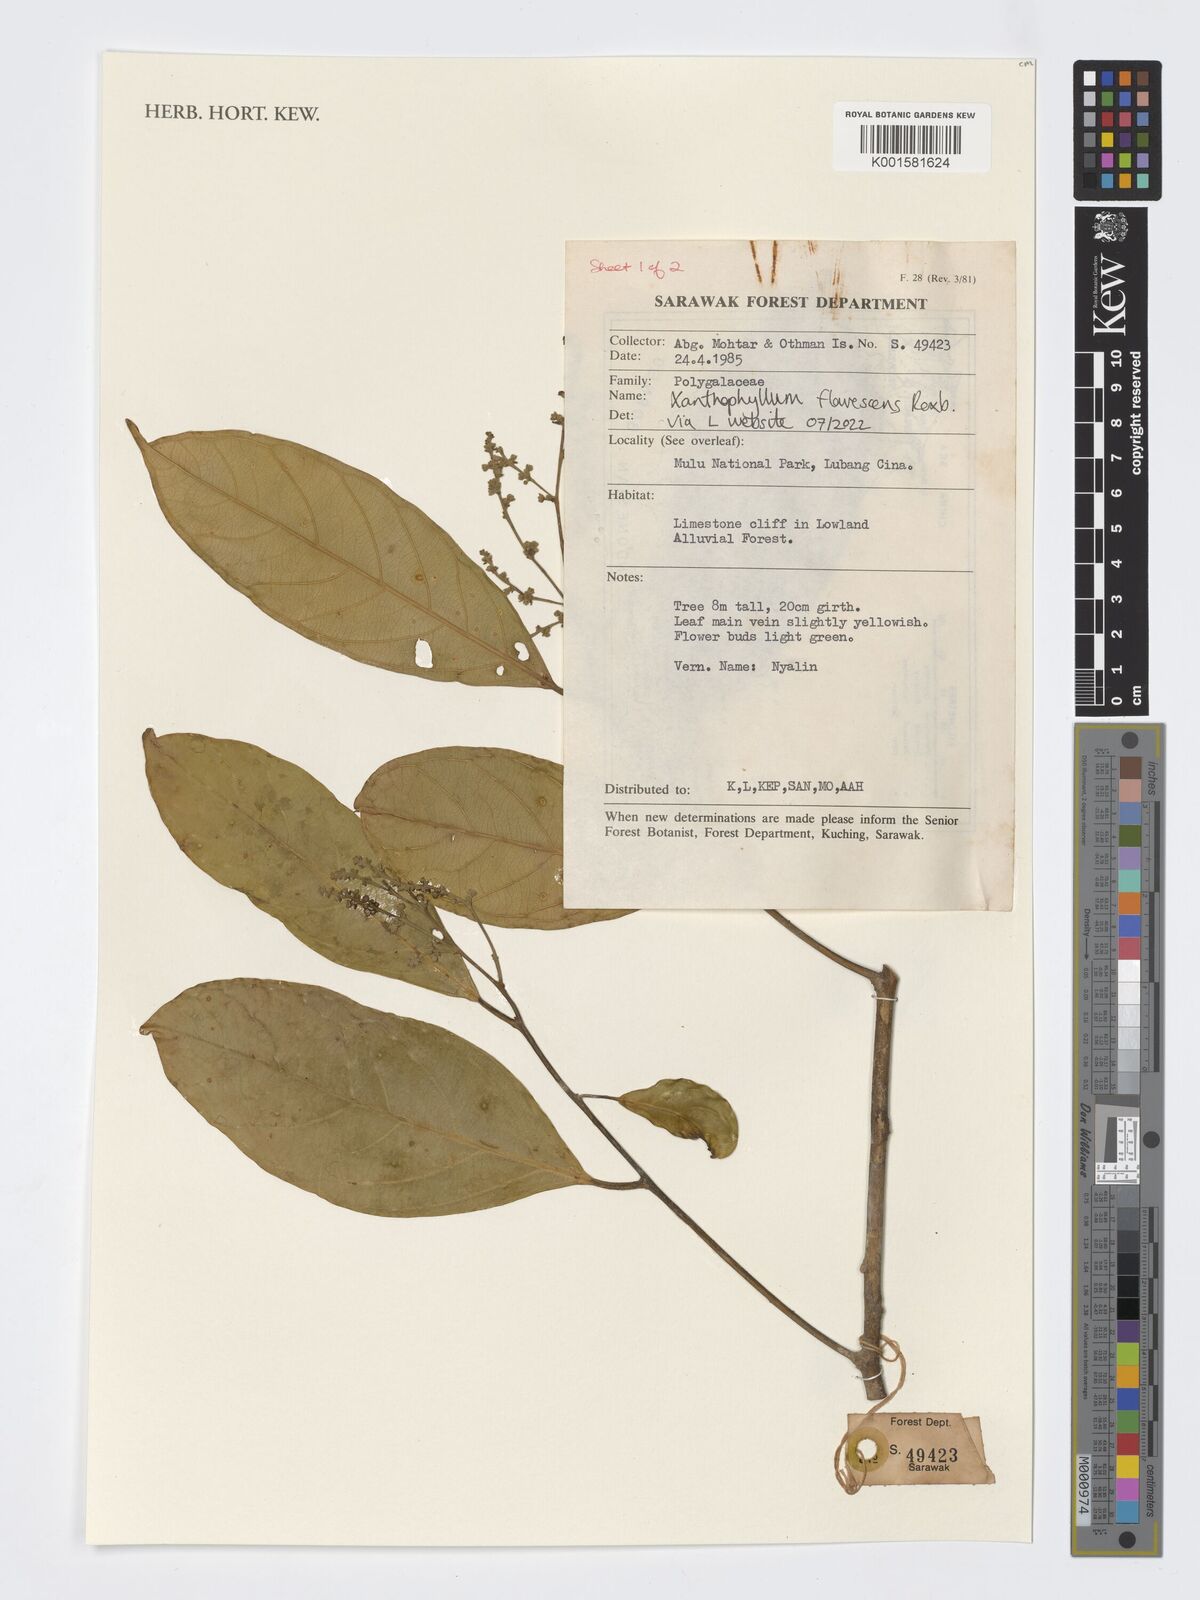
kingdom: Plantae
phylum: Tracheophyta
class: Magnoliopsida
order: Fabales
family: Polygalaceae
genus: Xanthophyllum
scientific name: Xanthophyllum flavescens
